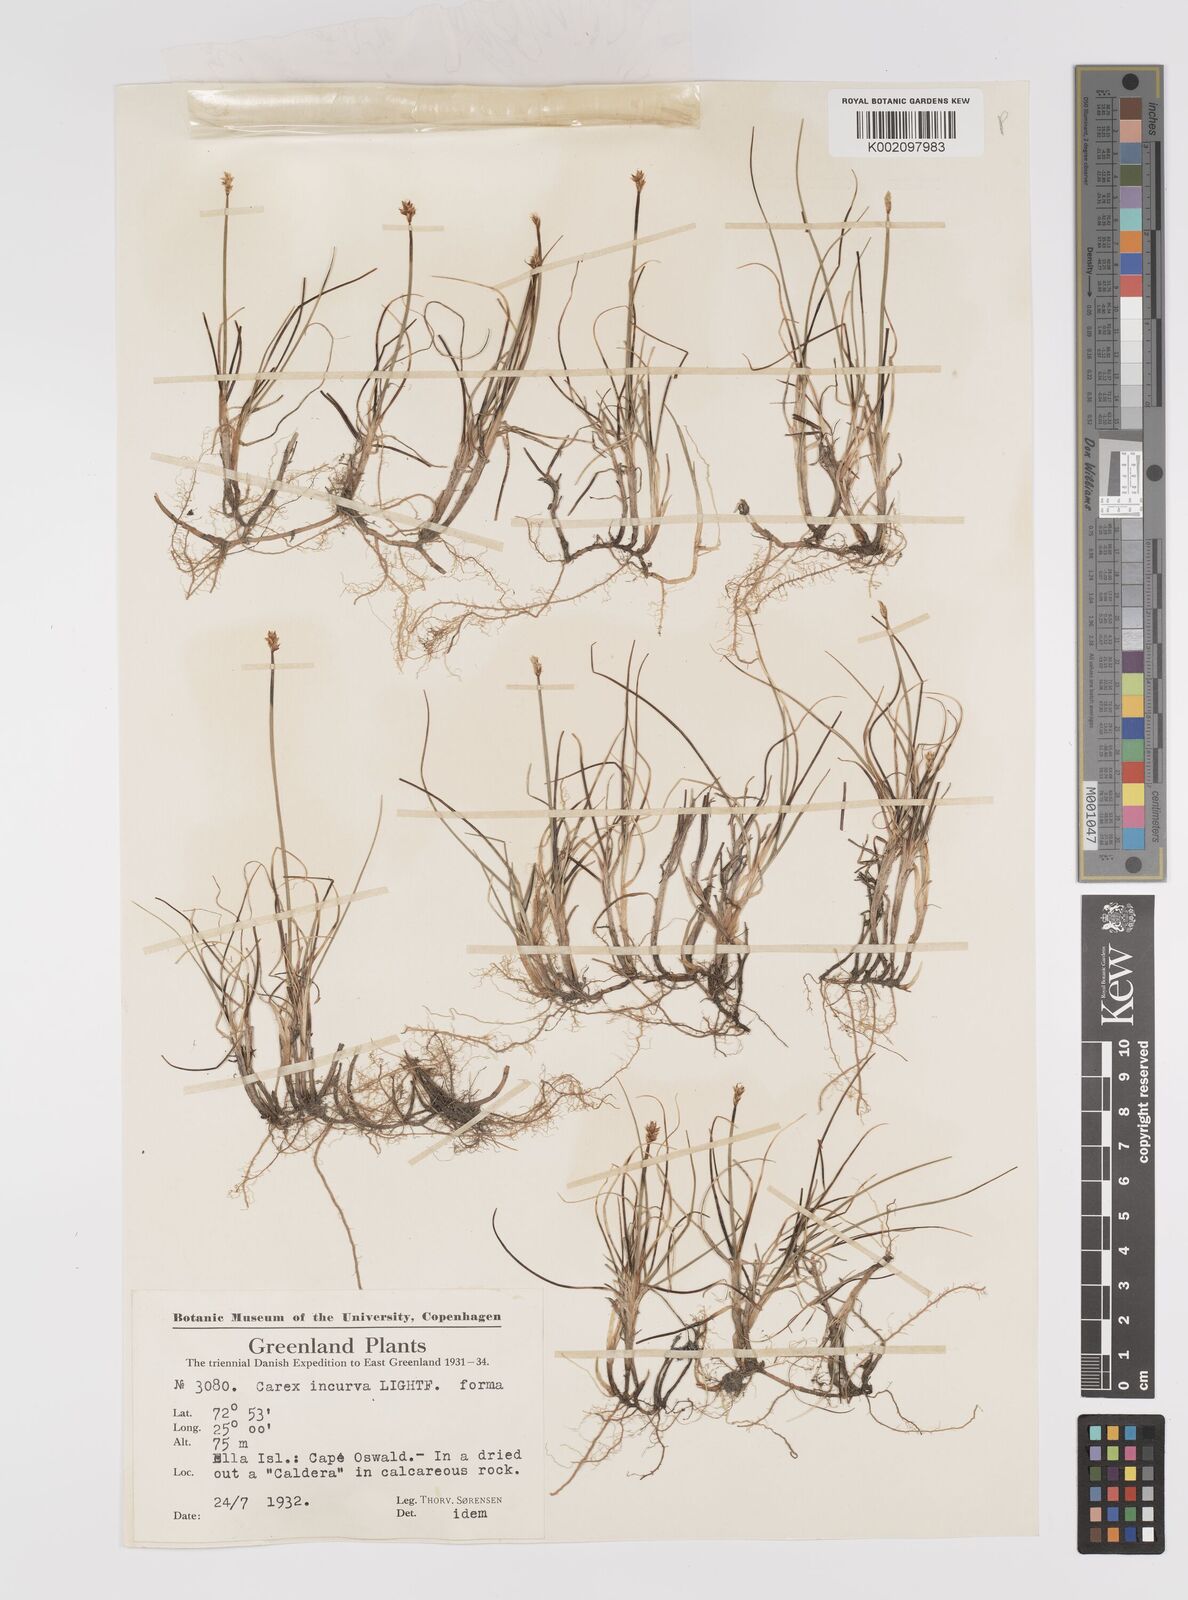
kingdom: Plantae
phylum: Tracheophyta
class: Liliopsida
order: Poales
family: Cyperaceae
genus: Carex
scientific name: Carex maritima
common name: Curved sedge
